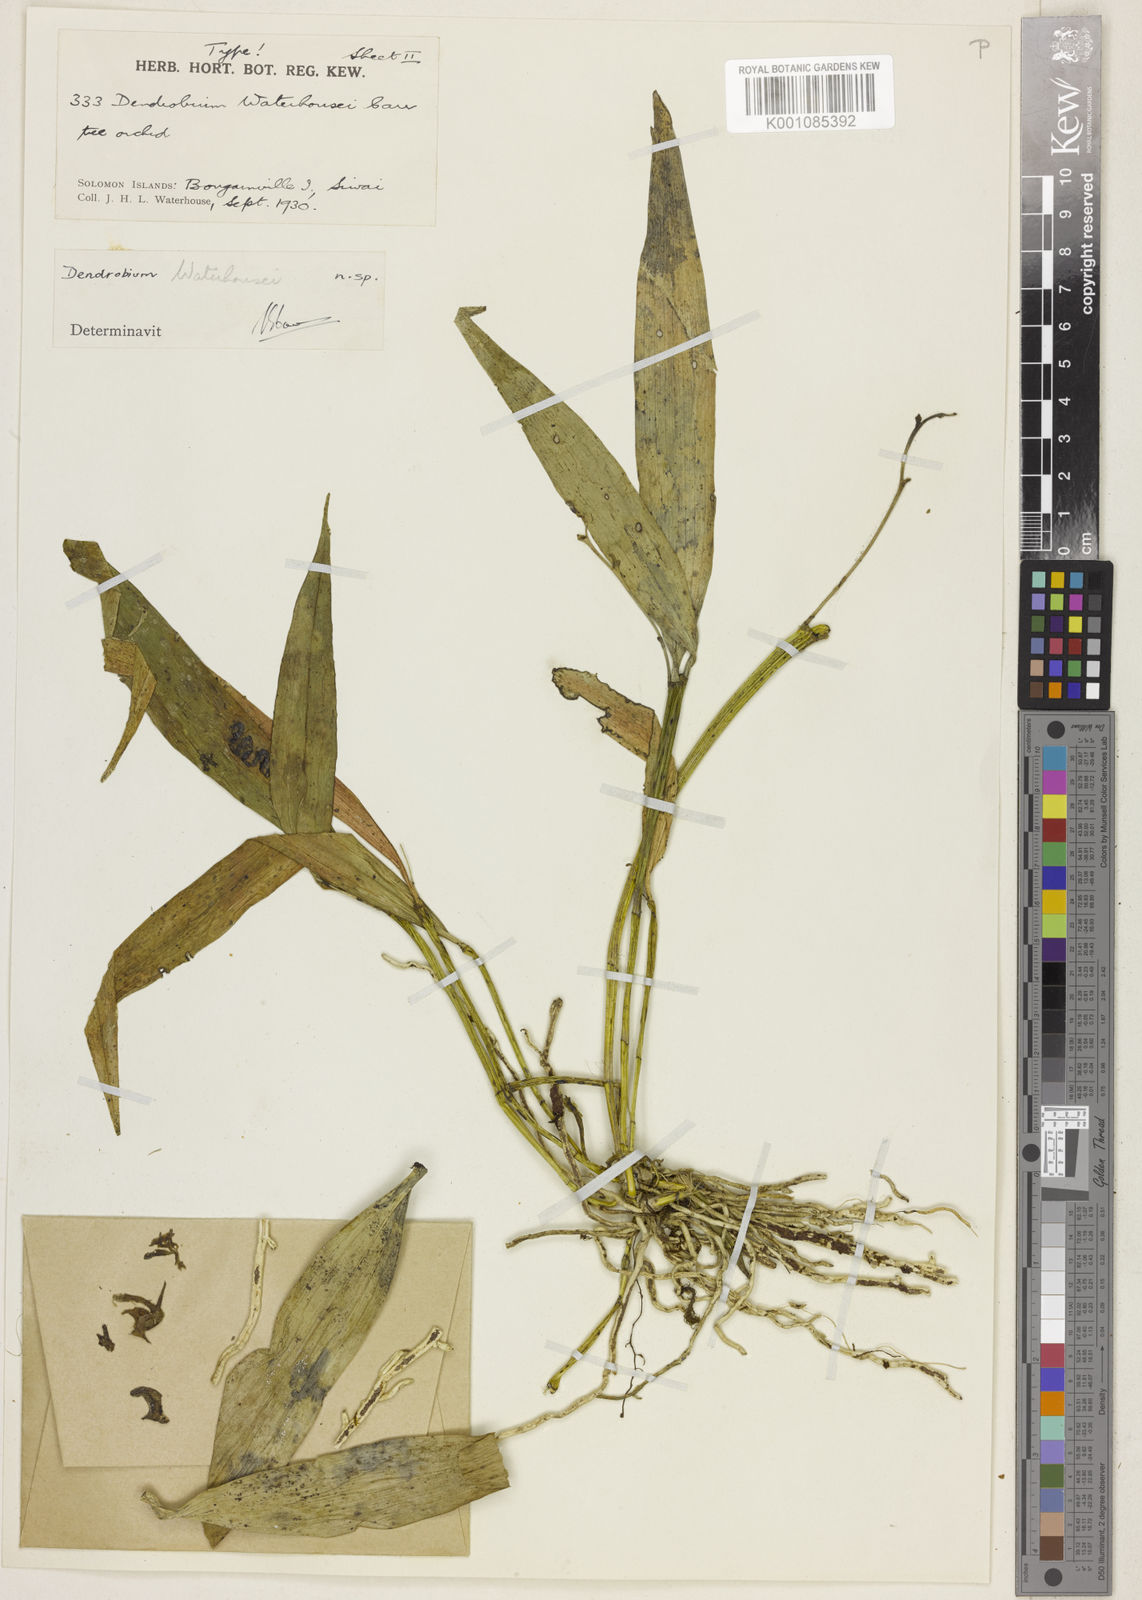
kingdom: Plantae
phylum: Tracheophyta
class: Liliopsida
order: Asparagales
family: Orchidaceae
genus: Dendrobium
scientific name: Dendrobium punamense
